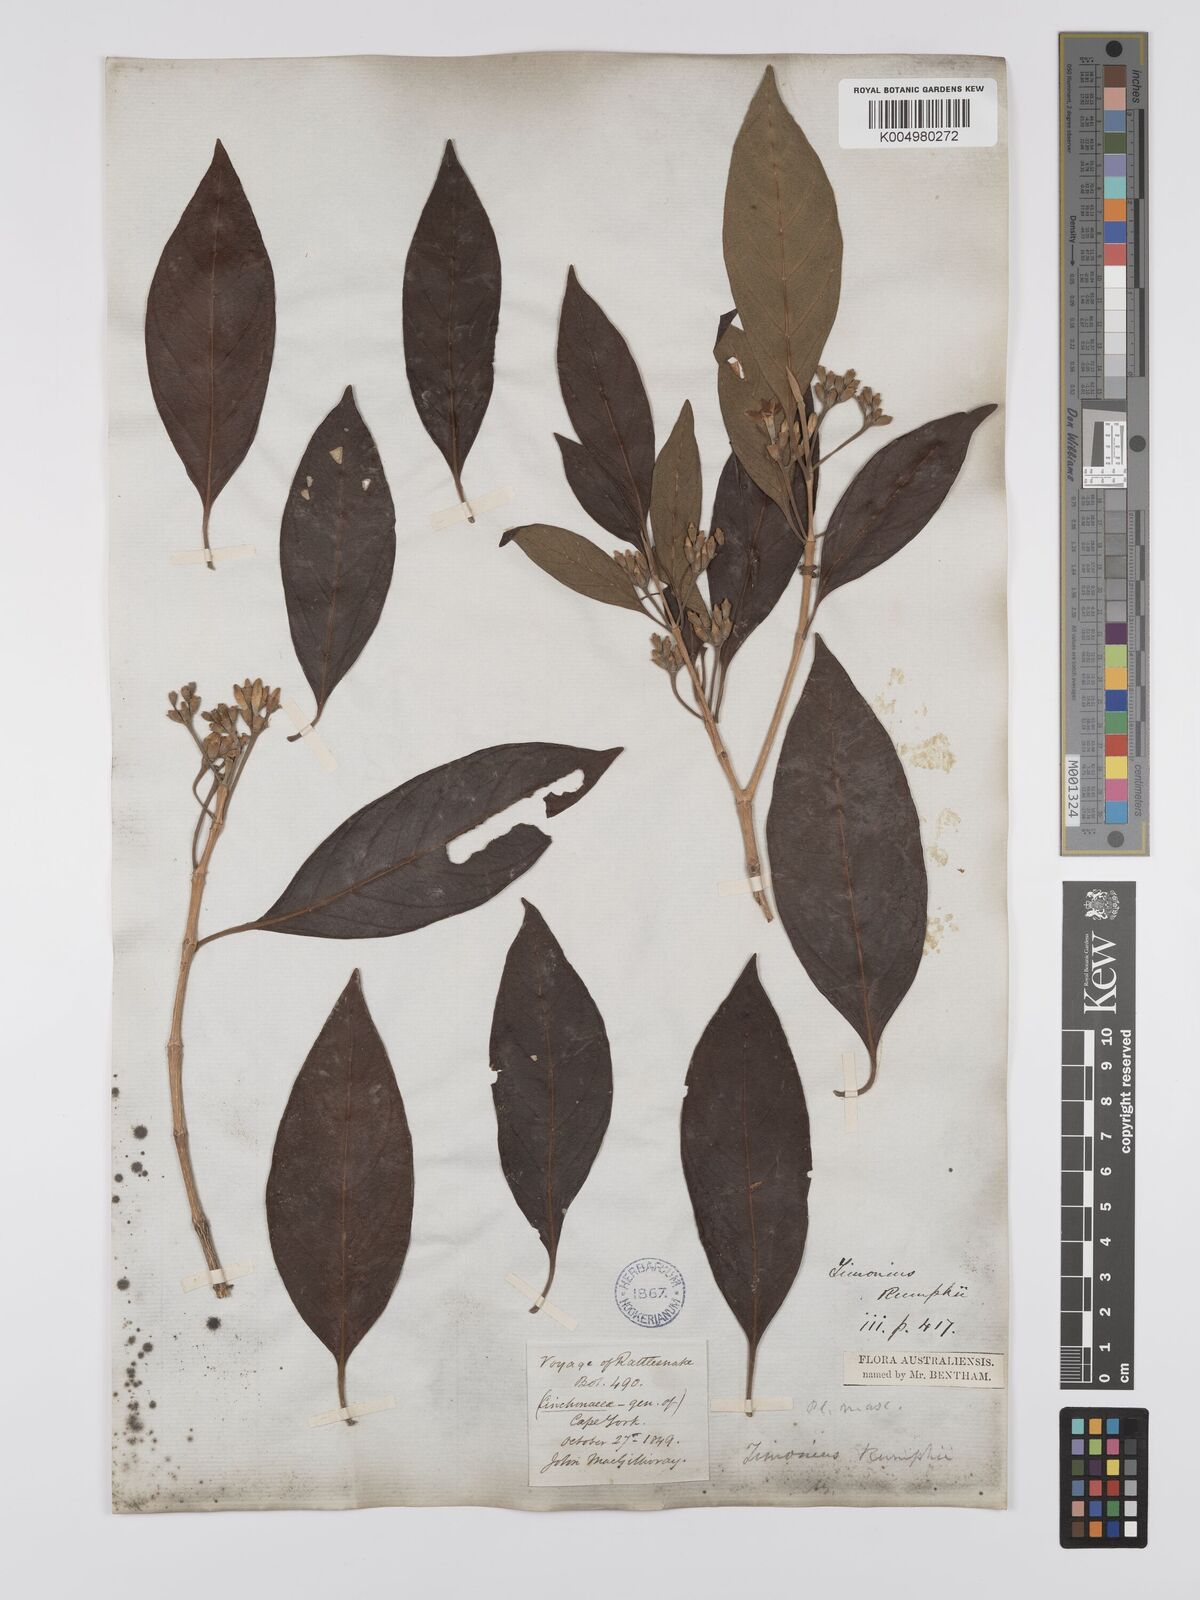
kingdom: Plantae
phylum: Tracheophyta
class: Magnoliopsida
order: Gentianales
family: Rubiaceae
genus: Timonius
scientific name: Timonius timon
